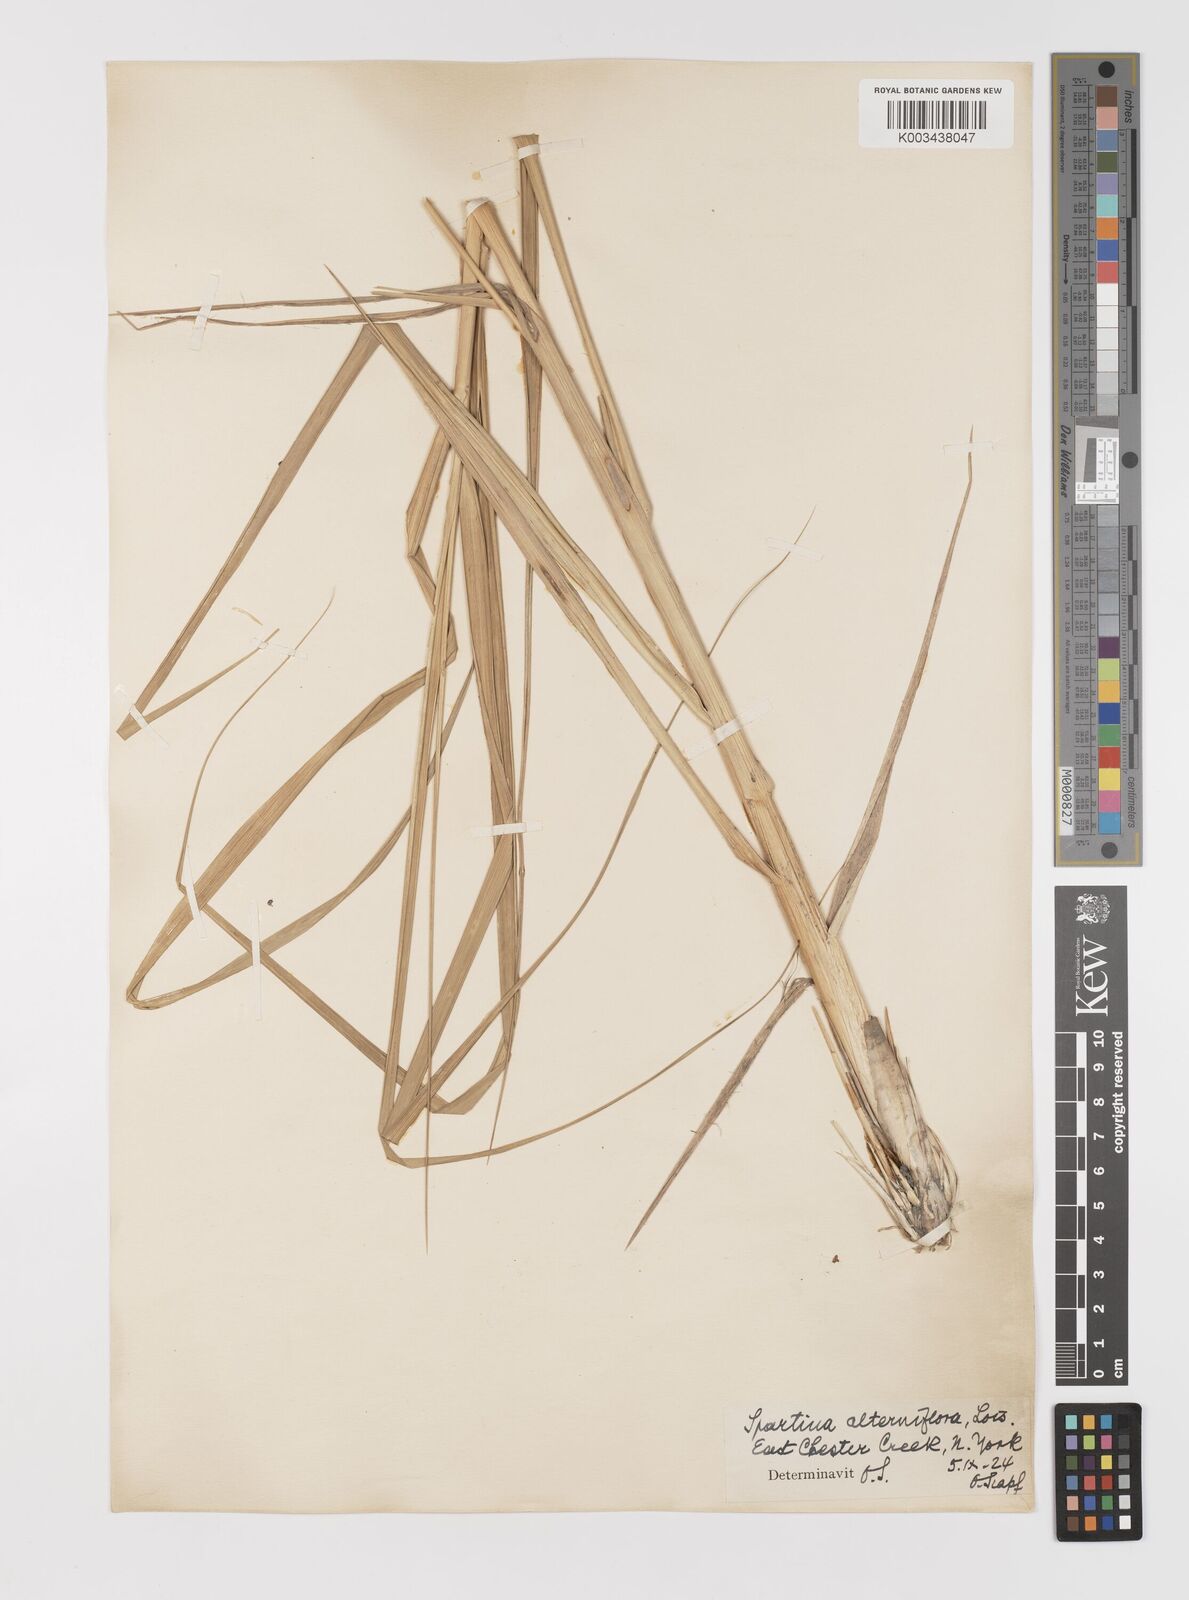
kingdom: Plantae
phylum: Tracheophyta
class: Liliopsida
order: Poales
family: Poaceae
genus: Sporobolus
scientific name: Sporobolus alterniflorus
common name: Atlantic cordgrass
